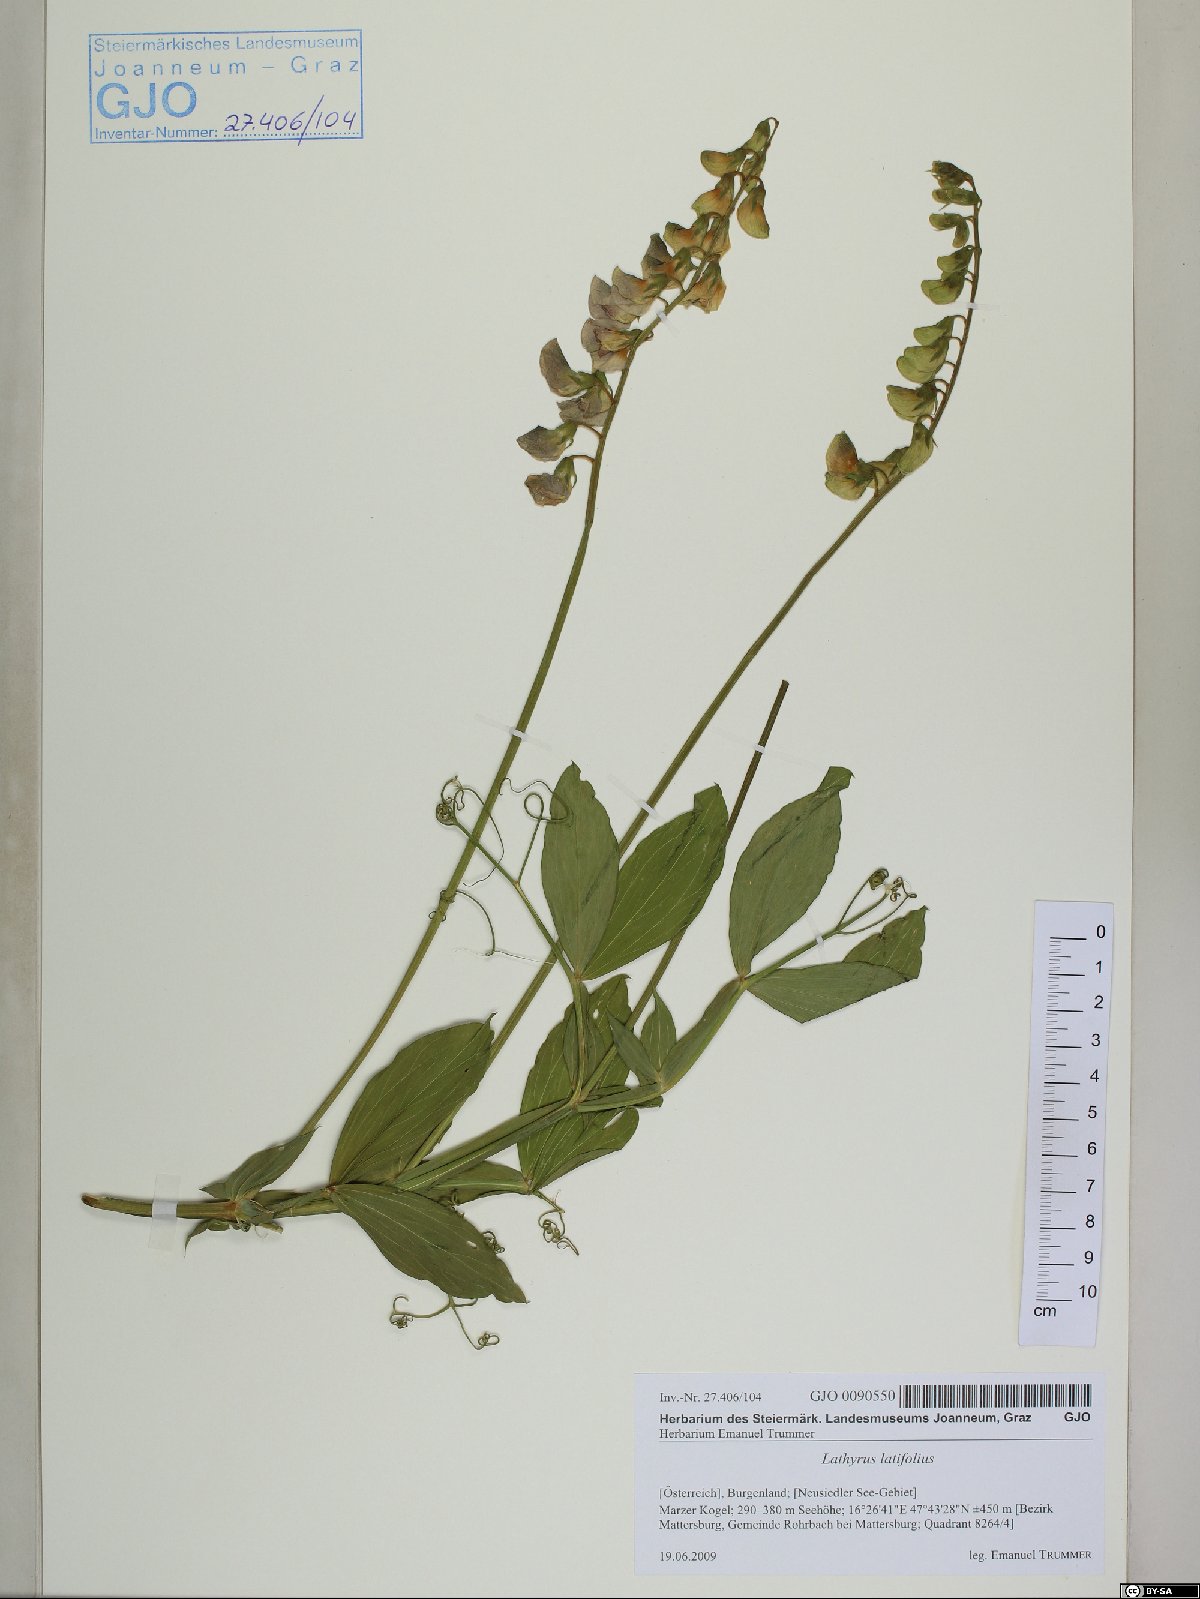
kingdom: Plantae
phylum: Tracheophyta
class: Magnoliopsida
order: Fabales
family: Fabaceae
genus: Lathyrus
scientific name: Lathyrus latifolius
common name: Perennial pea
